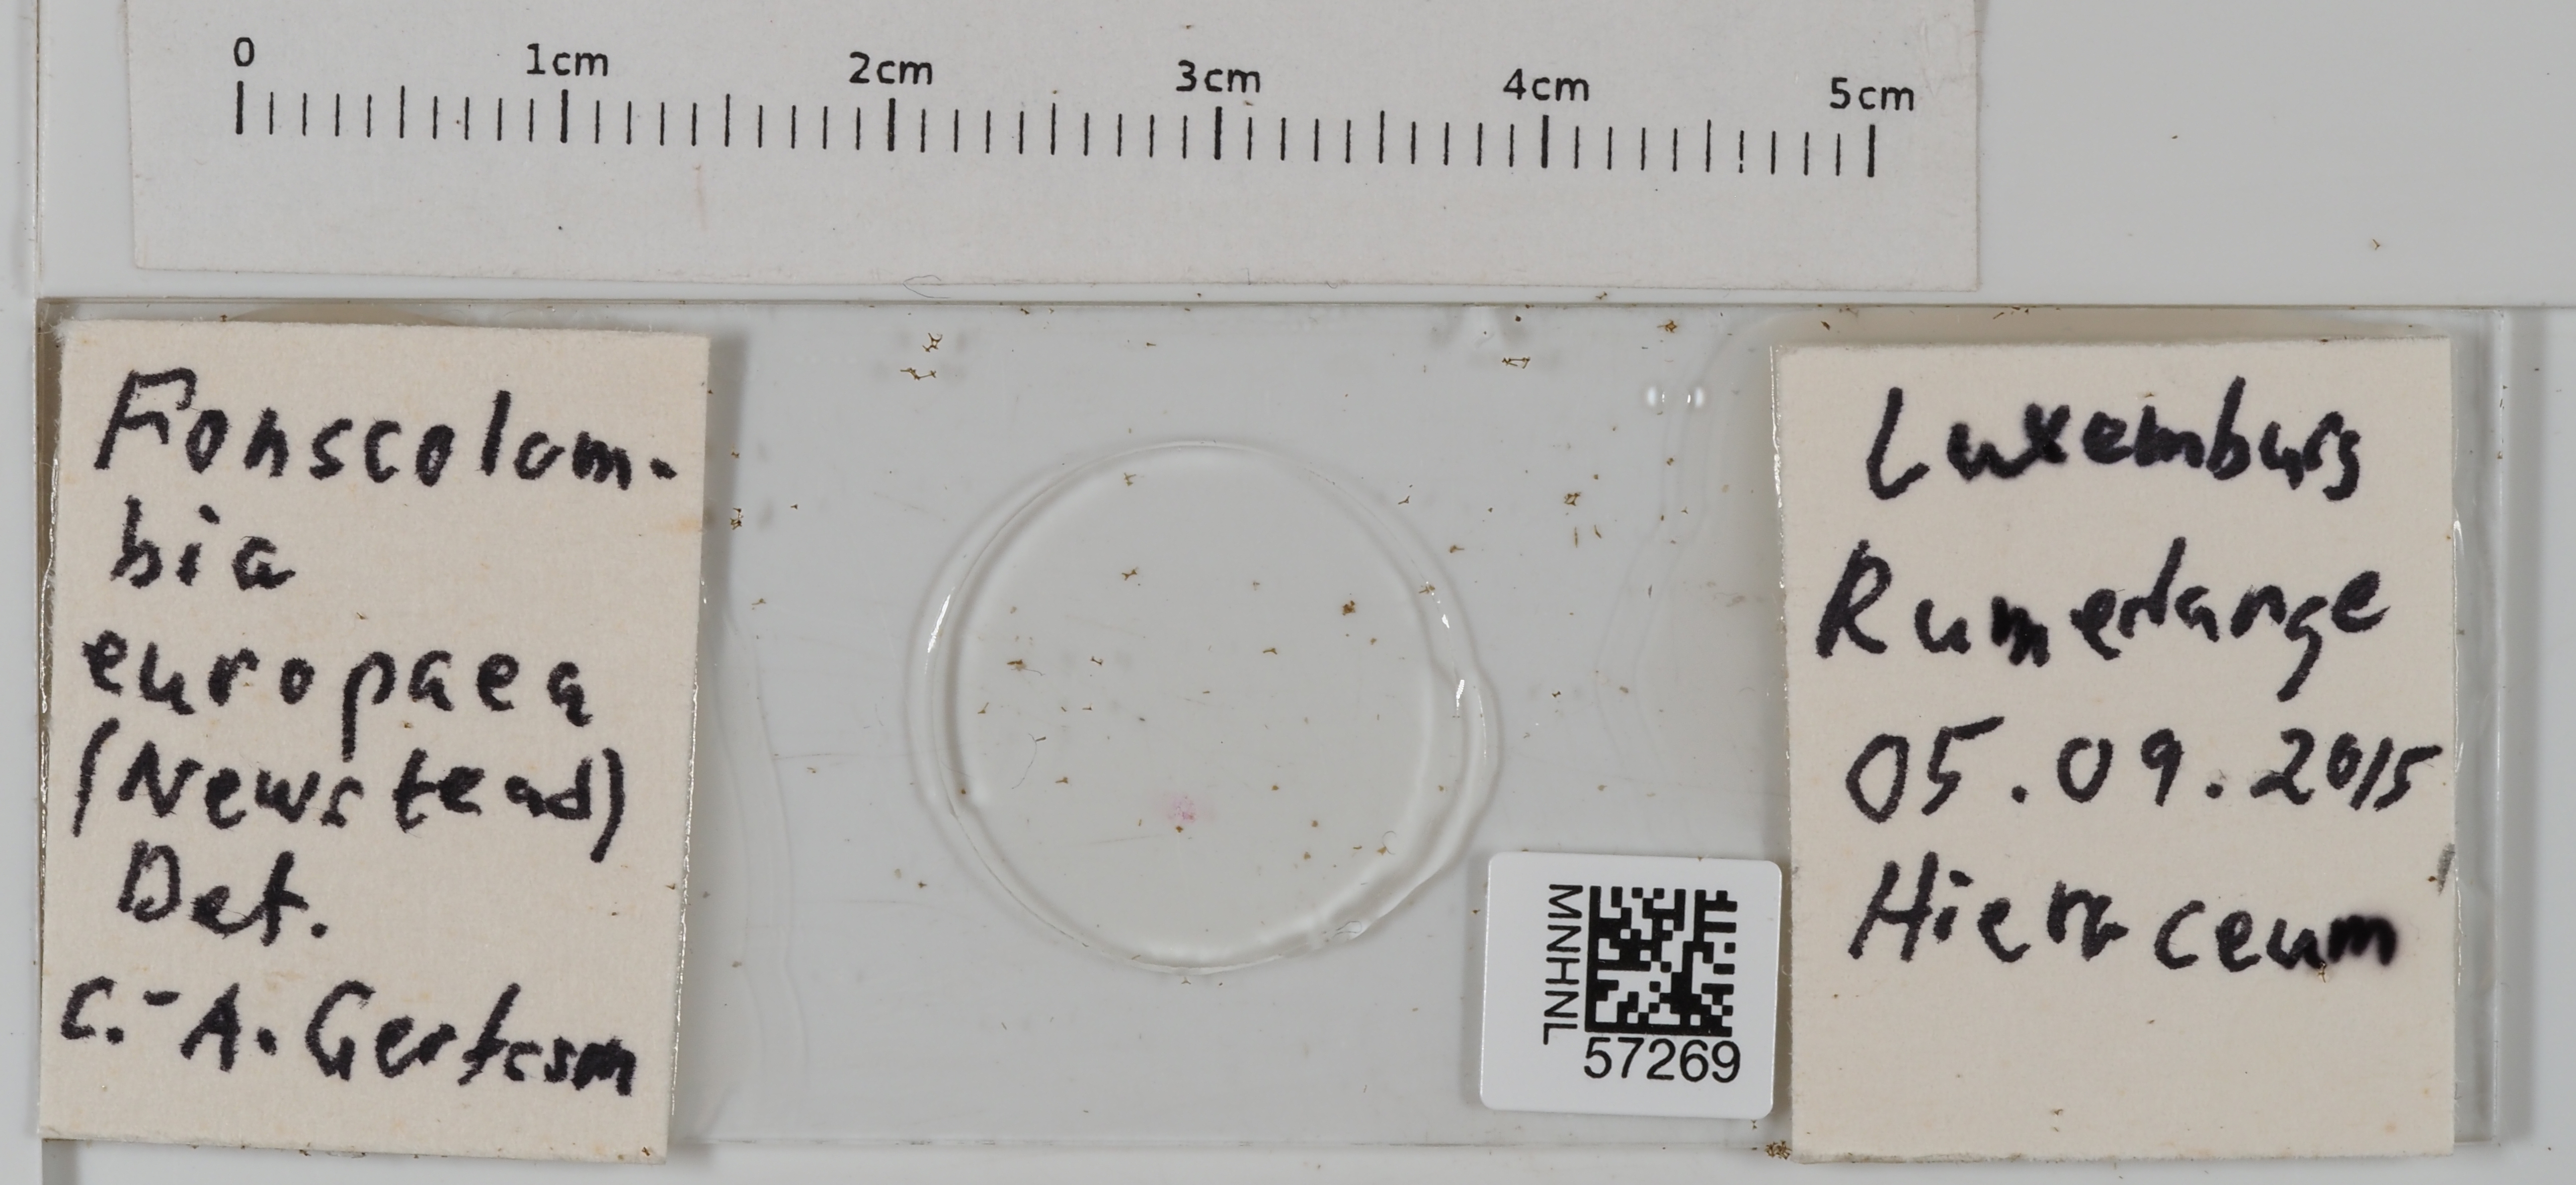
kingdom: Animalia
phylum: Arthropoda
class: Insecta
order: Hemiptera
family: Pseudococcidae
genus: Euripersia
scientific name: Euripersia europaea
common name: Grass mealybug
